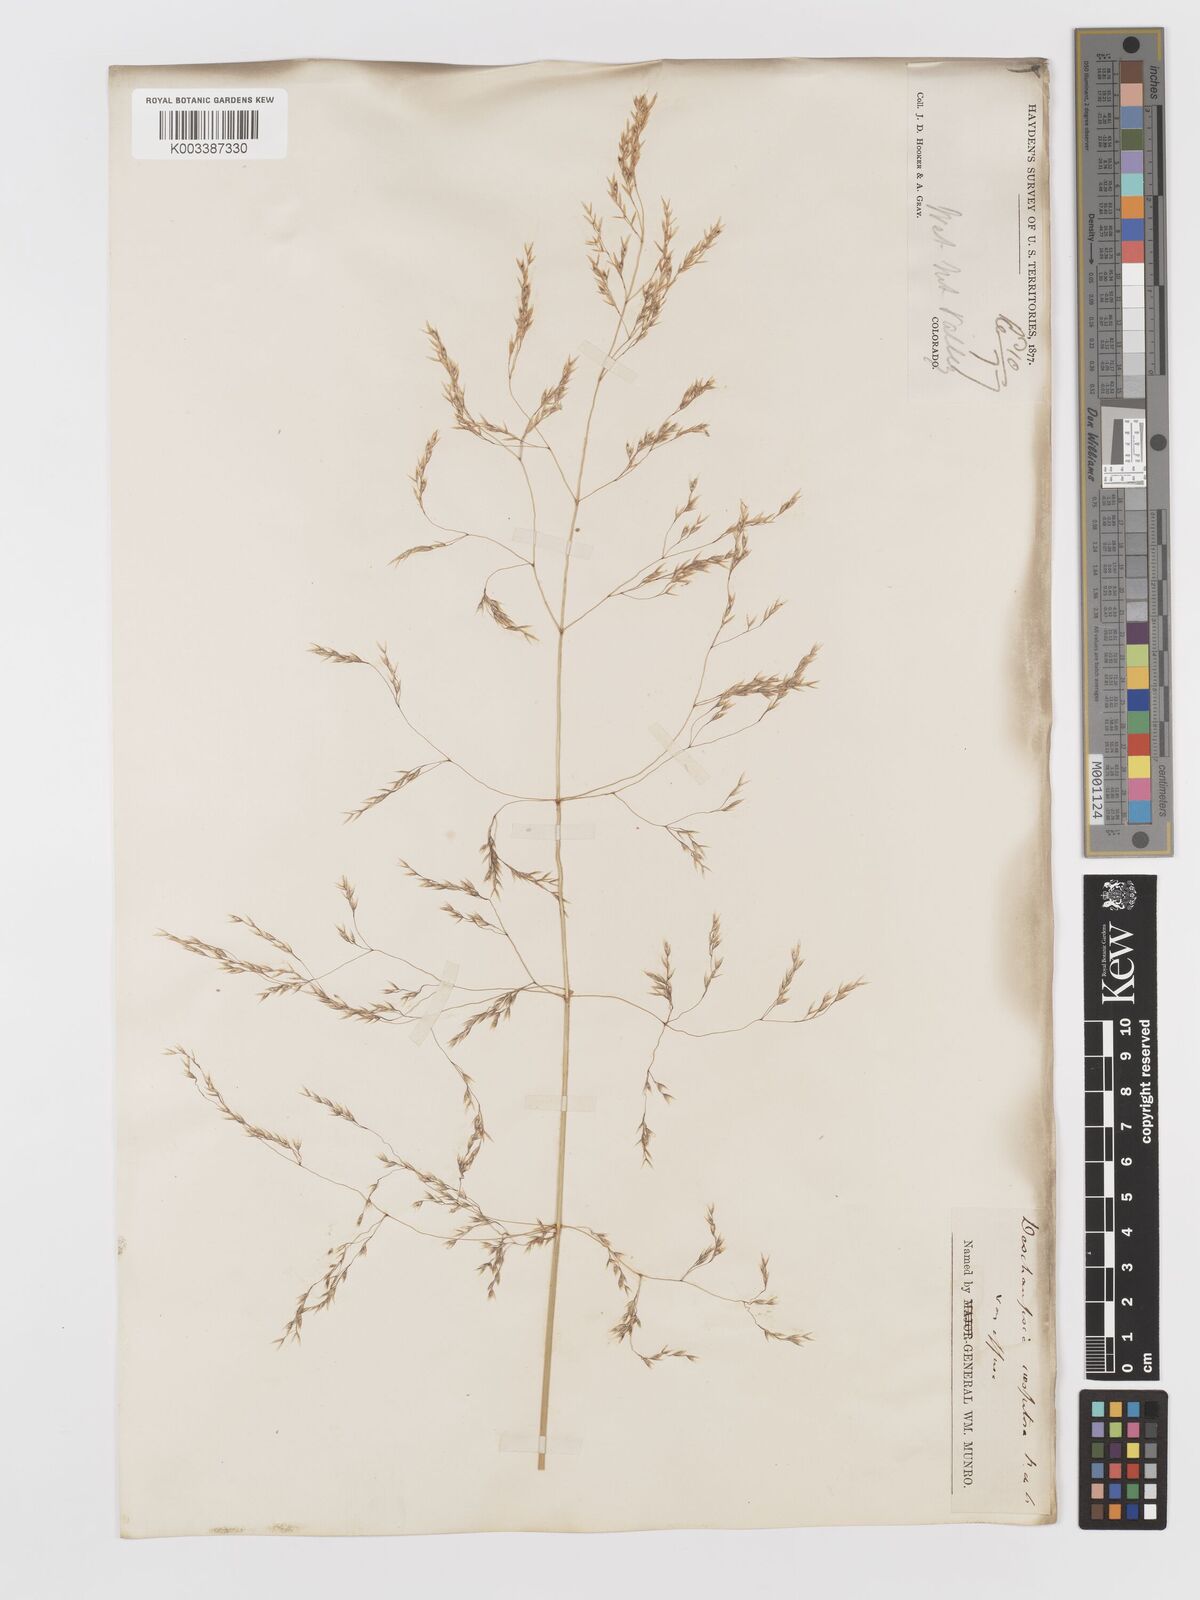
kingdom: Plantae
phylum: Tracheophyta
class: Liliopsida
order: Poales
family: Poaceae
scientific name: Poaceae
